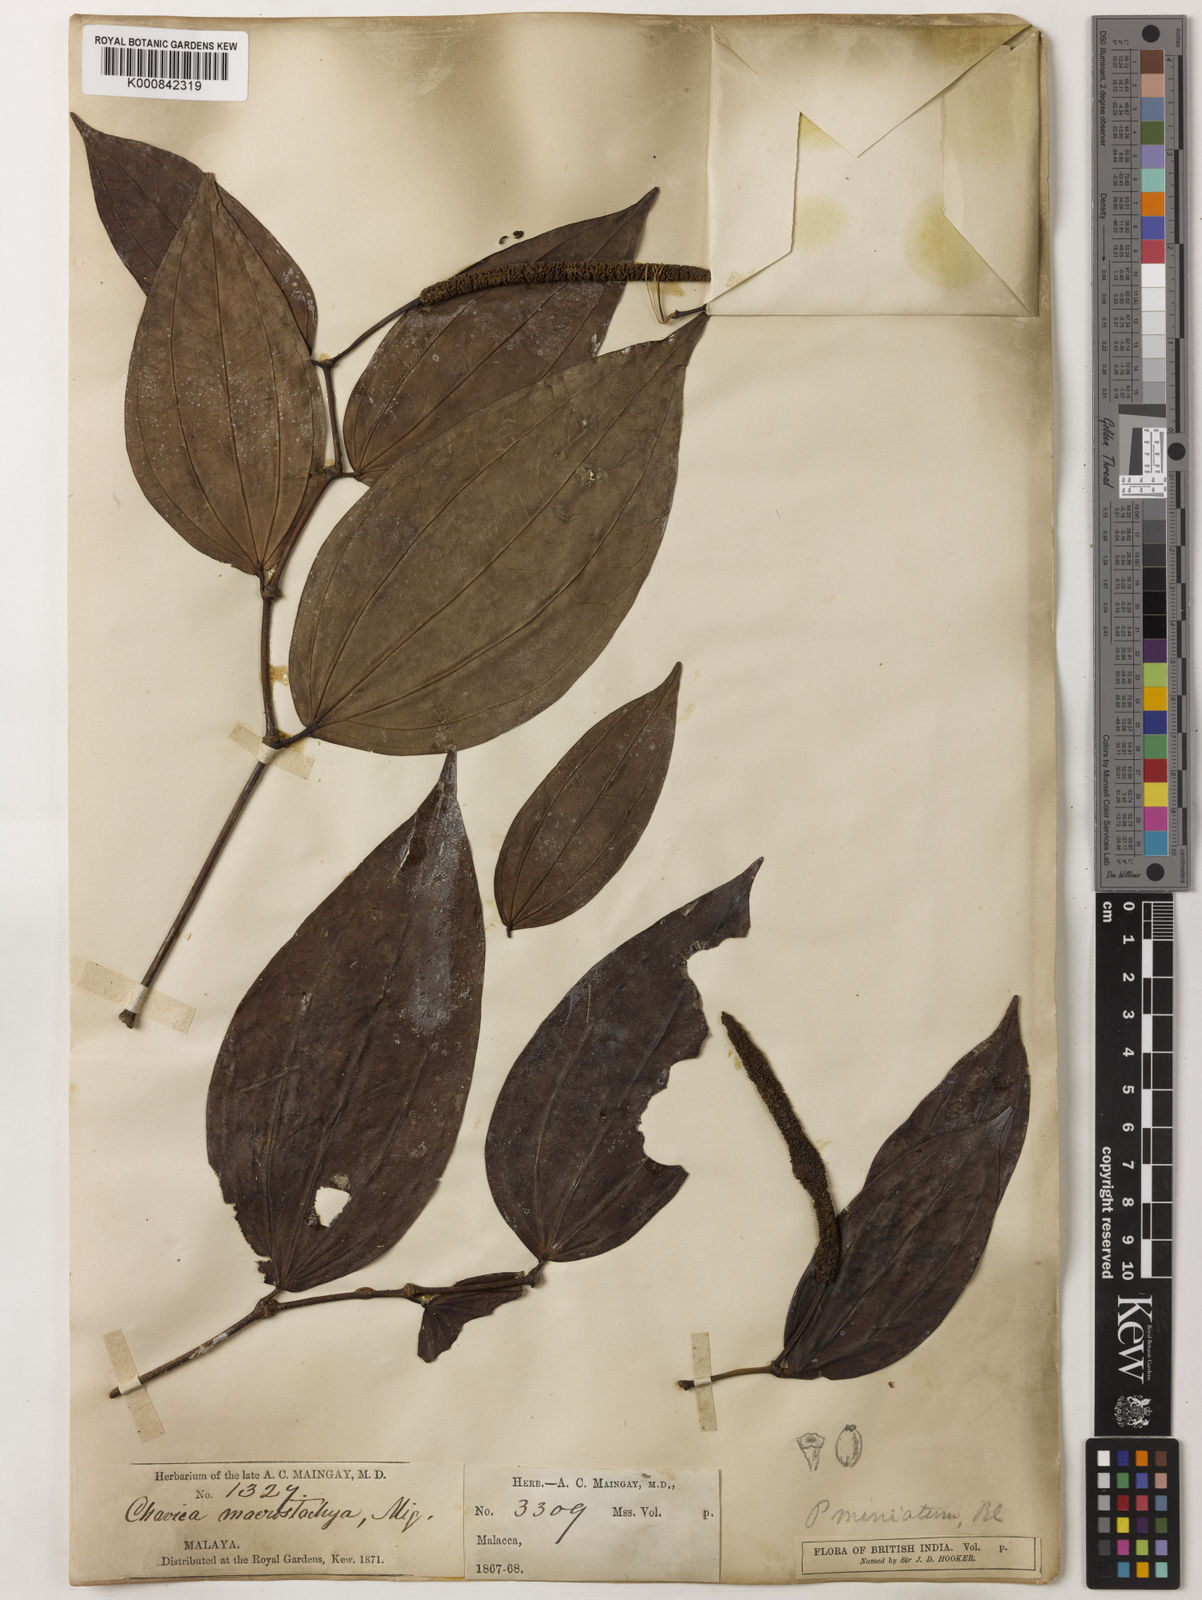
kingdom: Plantae
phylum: Tracheophyta
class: Magnoliopsida
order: Piperales
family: Piperaceae
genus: Piper
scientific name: Piper macropiper
